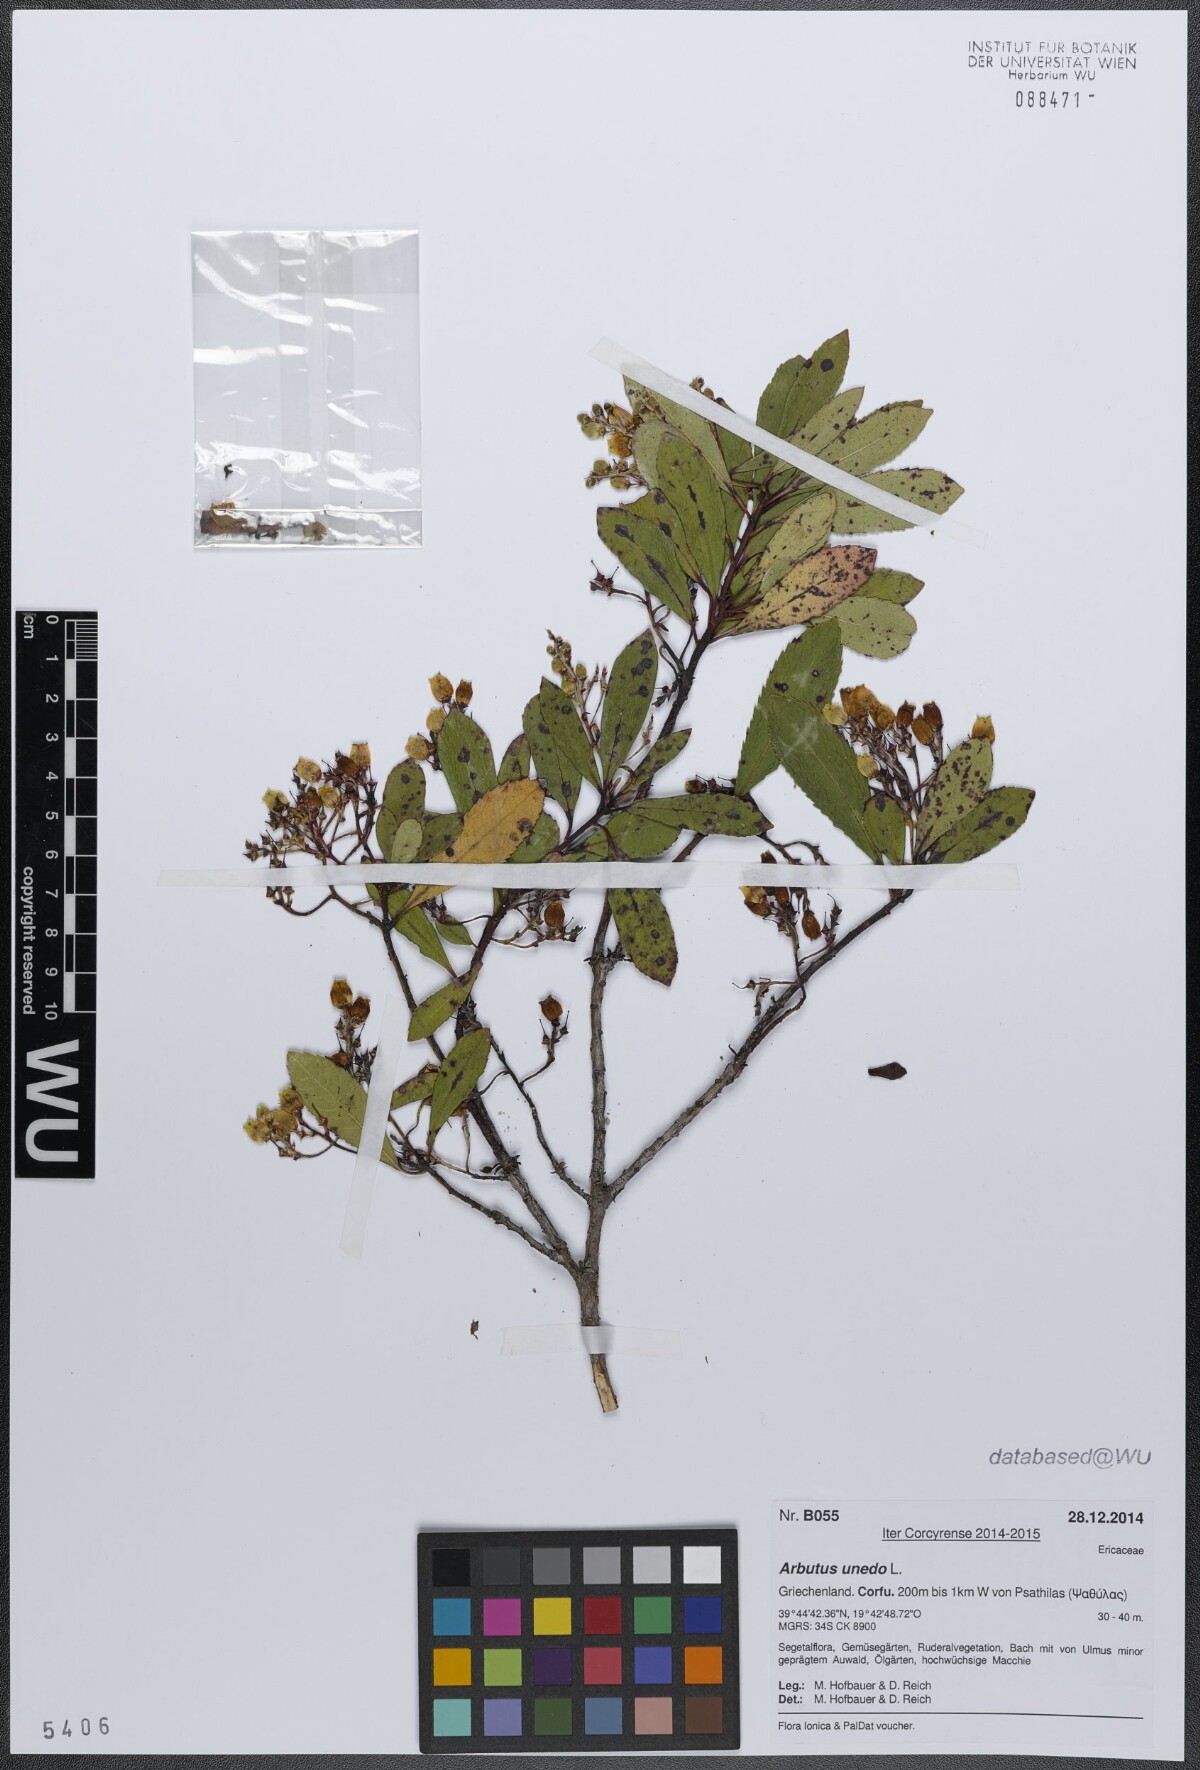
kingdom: Plantae
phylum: Tracheophyta
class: Magnoliopsida
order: Ericales
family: Ericaceae
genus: Arbutus
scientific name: Arbutus unedo
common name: Strawberry-tree
